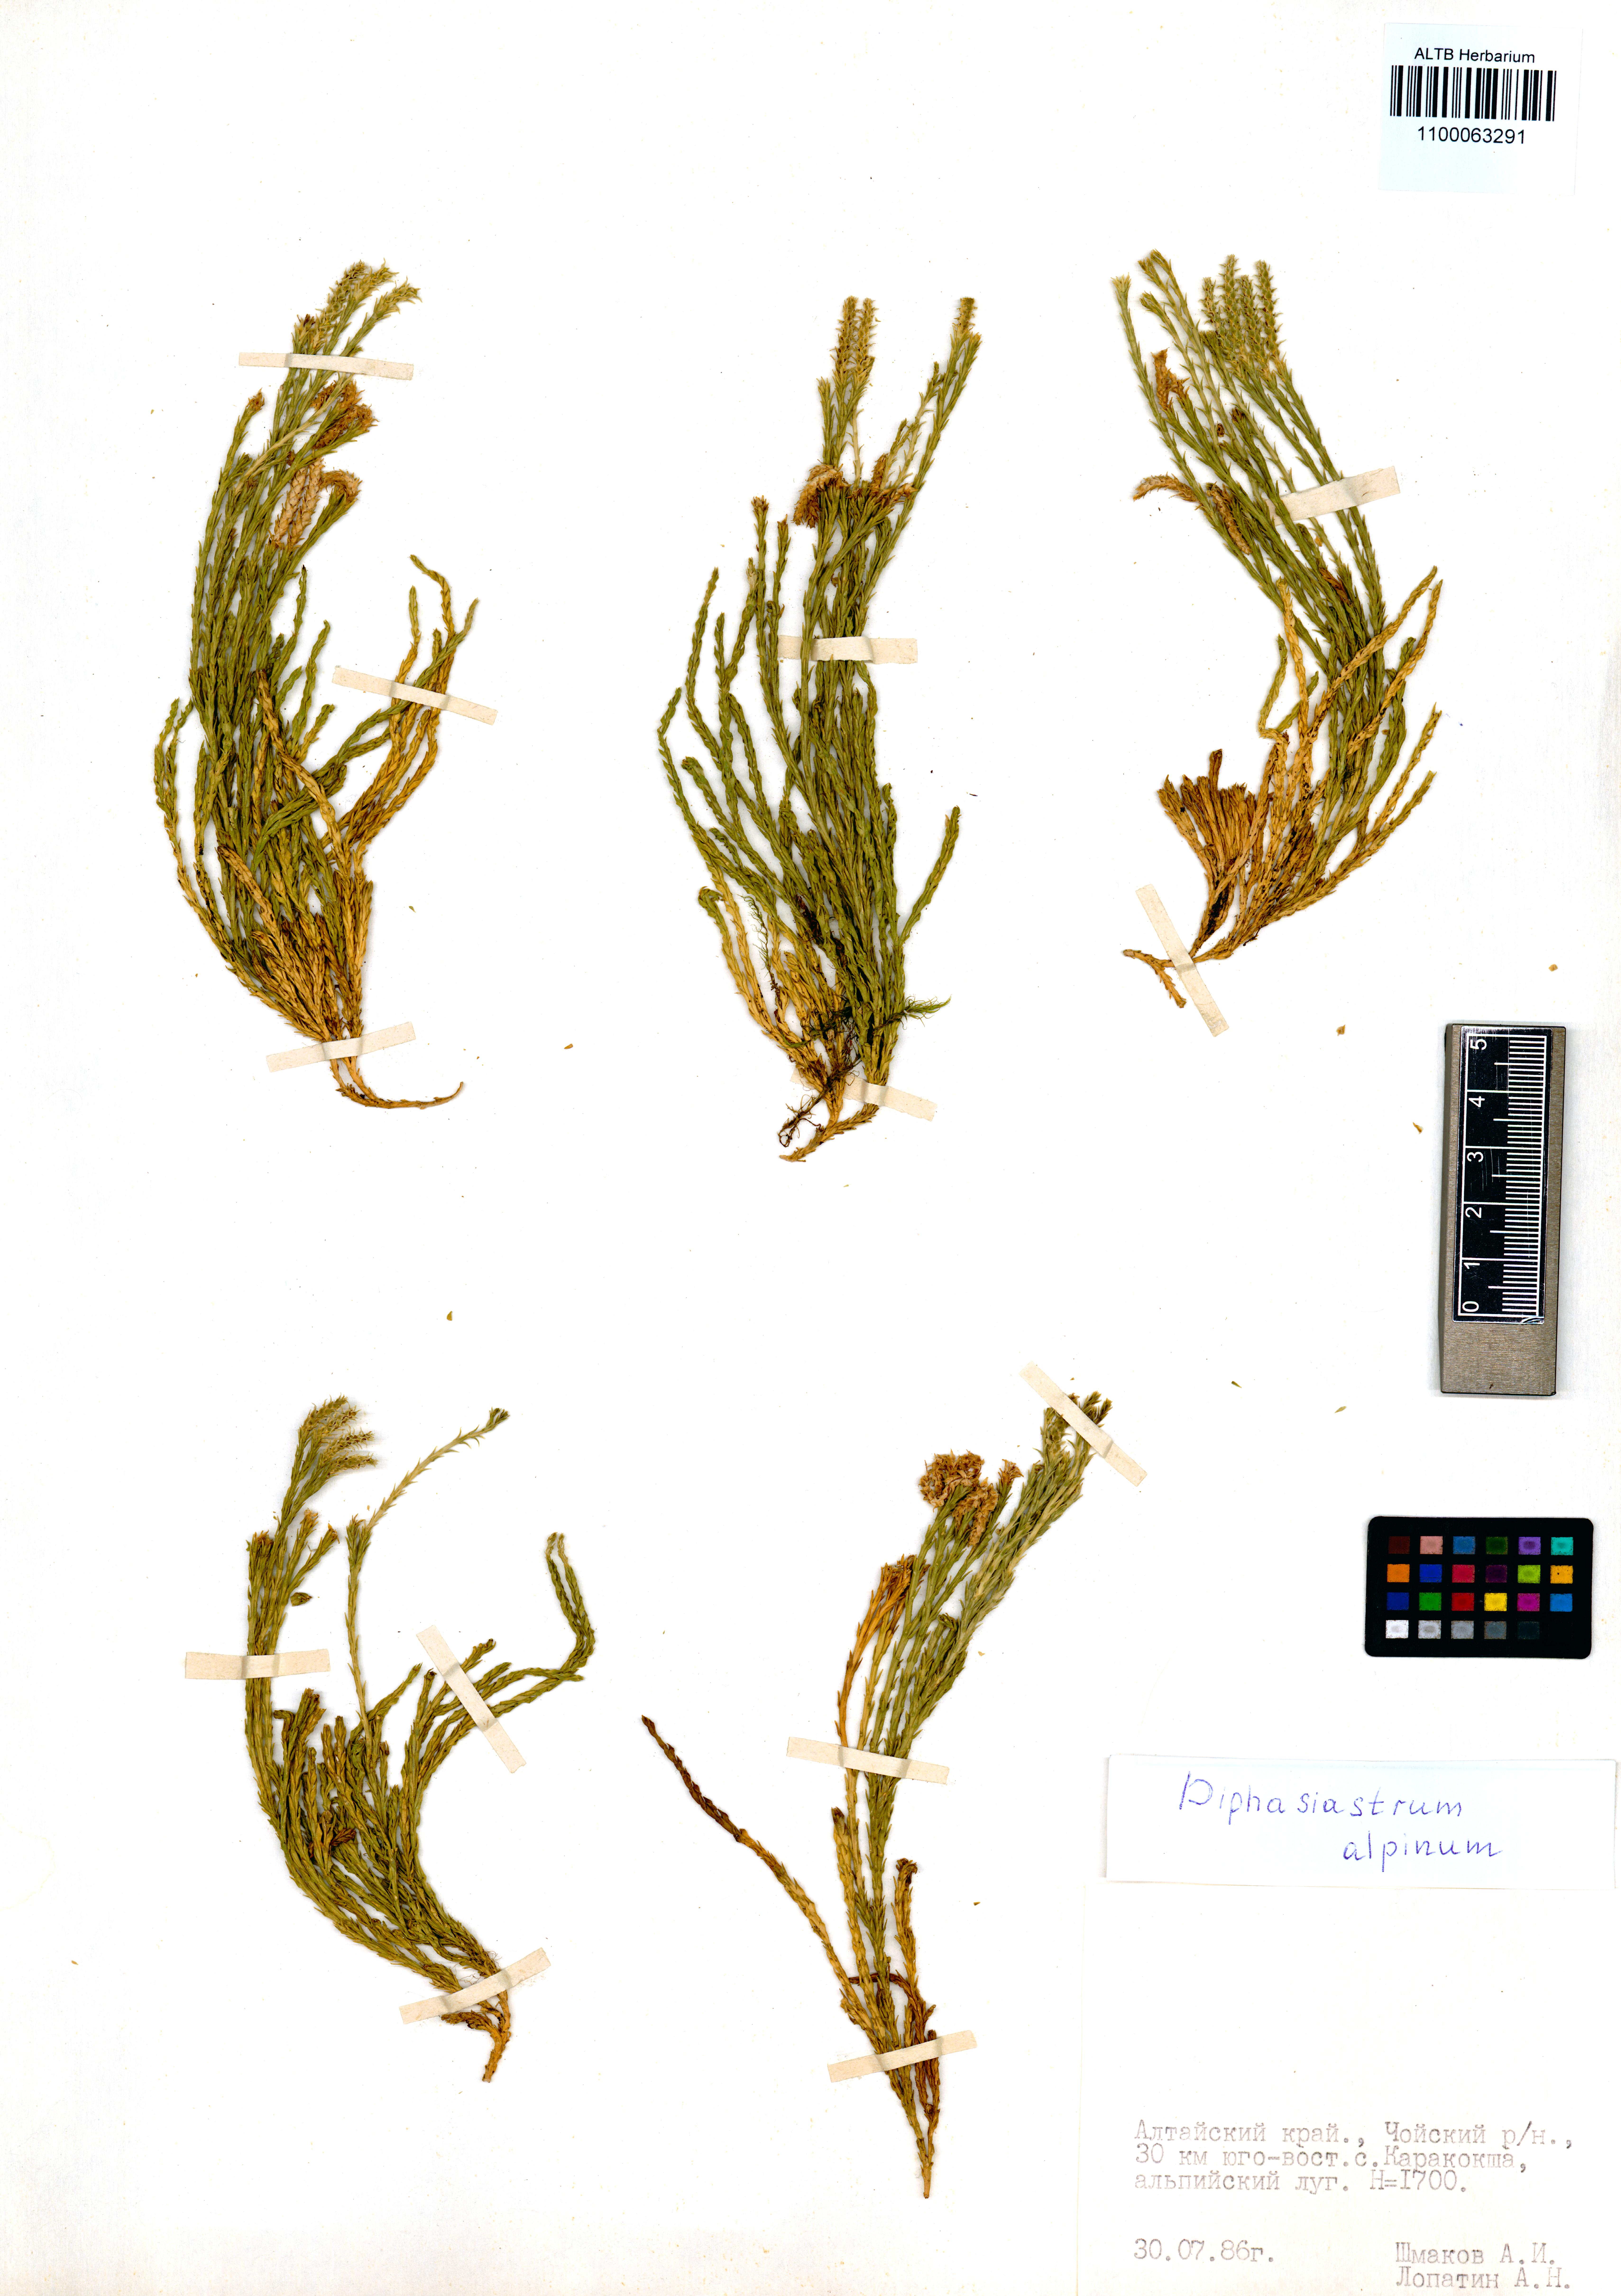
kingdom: Plantae
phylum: Tracheophyta
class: Lycopodiopsida
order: Lycopodiales
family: Lycopodiaceae
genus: Diphasiastrum
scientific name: Diphasiastrum alpinum
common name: Alpine clubmoss
